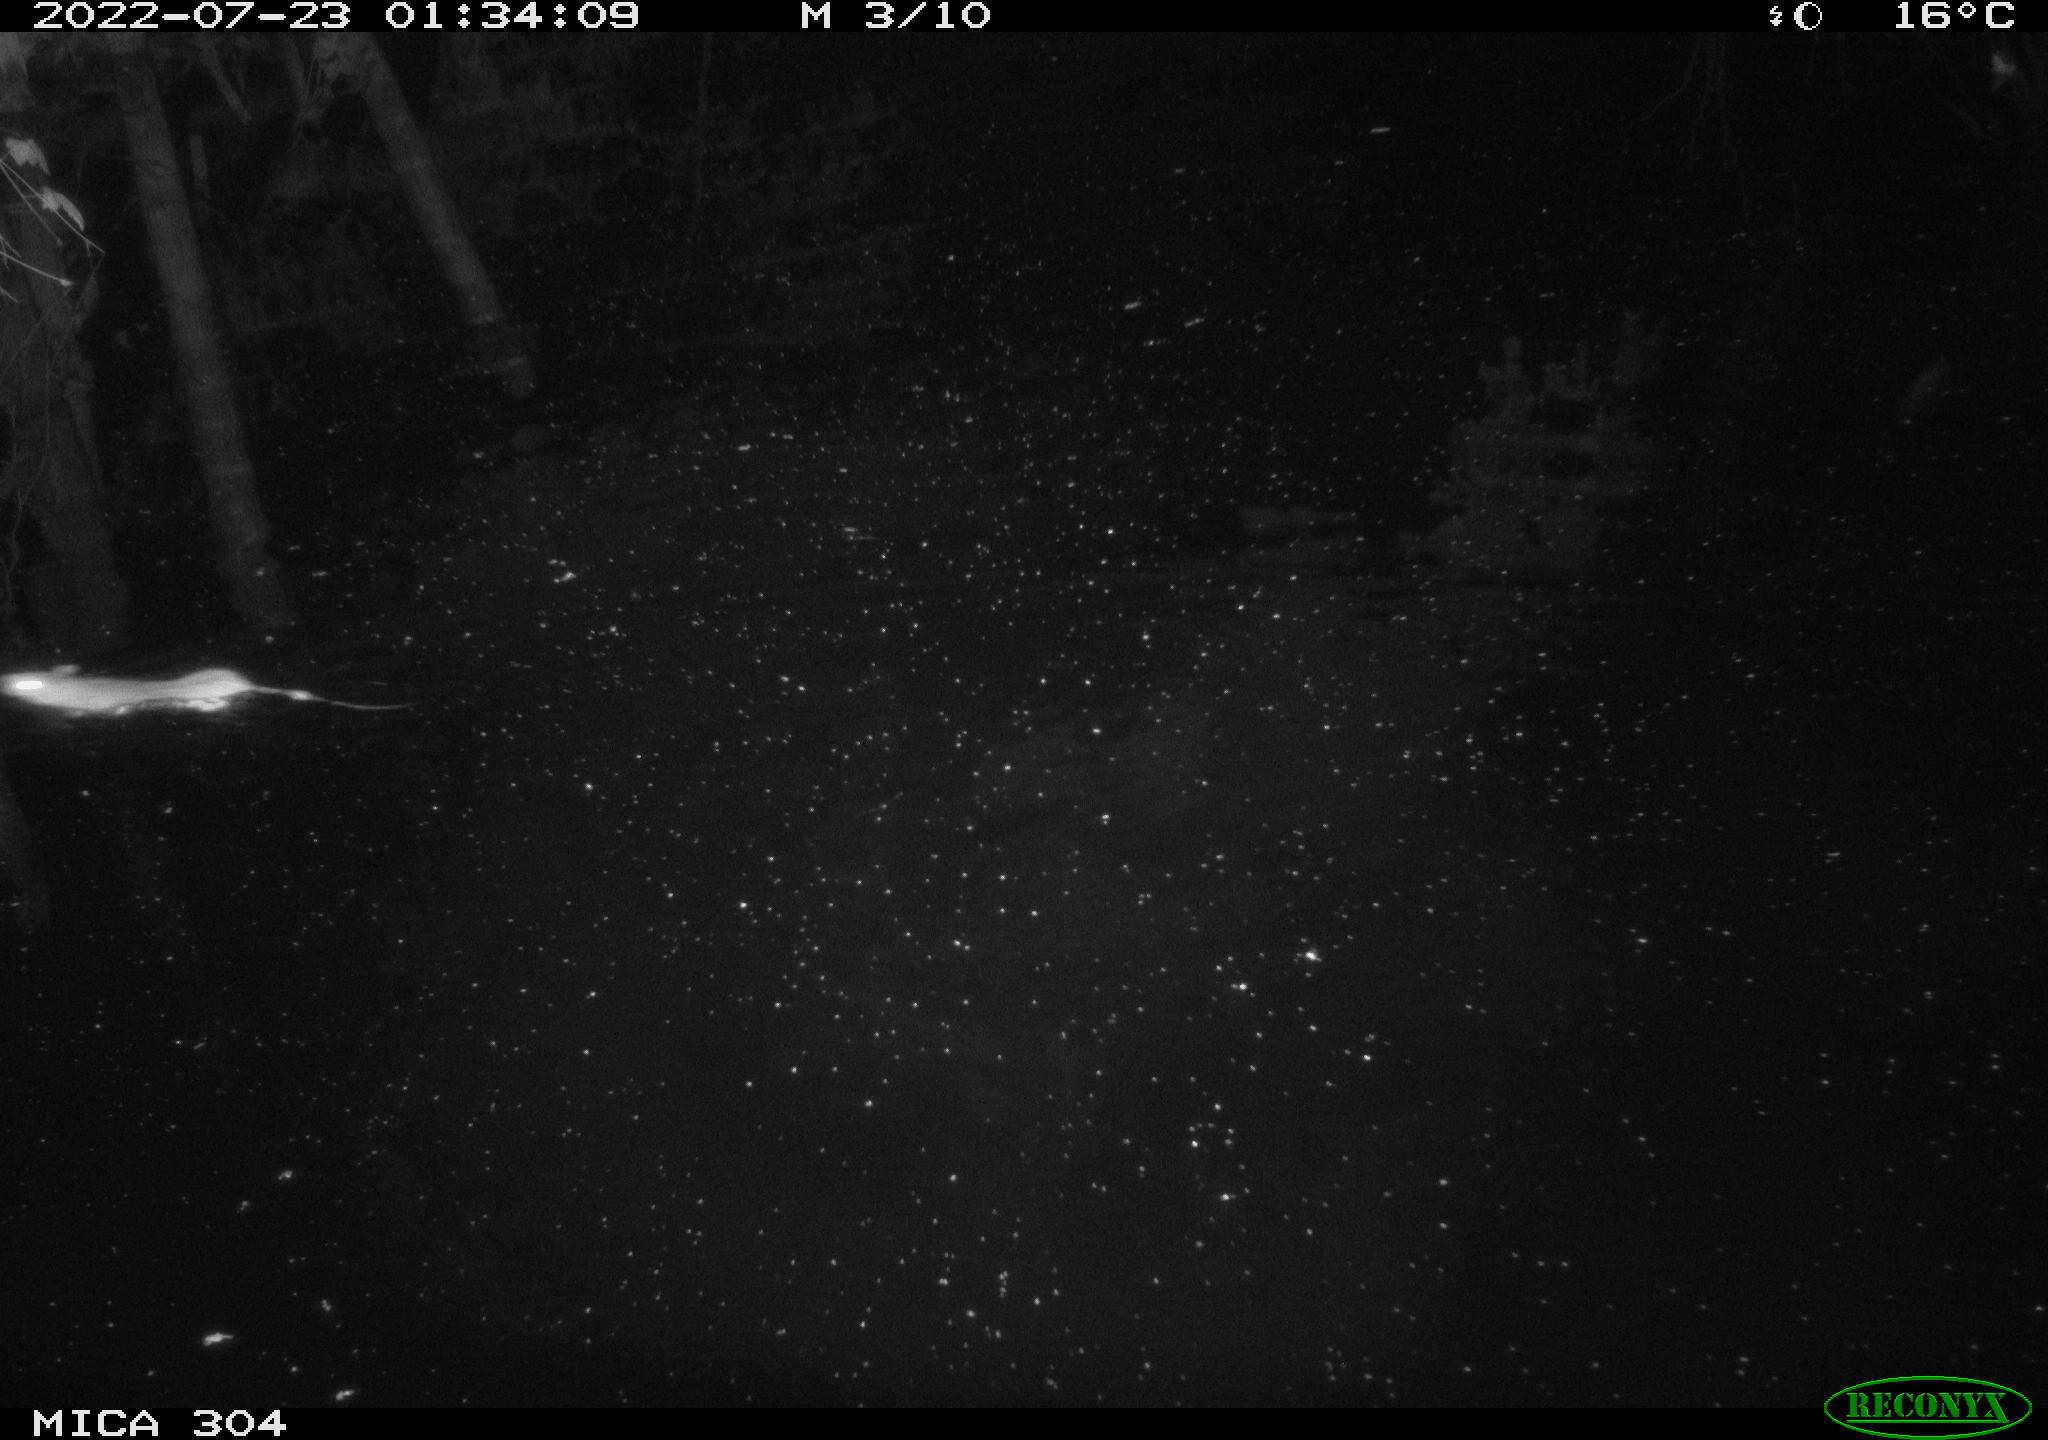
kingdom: Animalia
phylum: Chordata
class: Mammalia
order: Rodentia
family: Muridae
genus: Rattus
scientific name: Rattus norvegicus
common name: Brown rat
